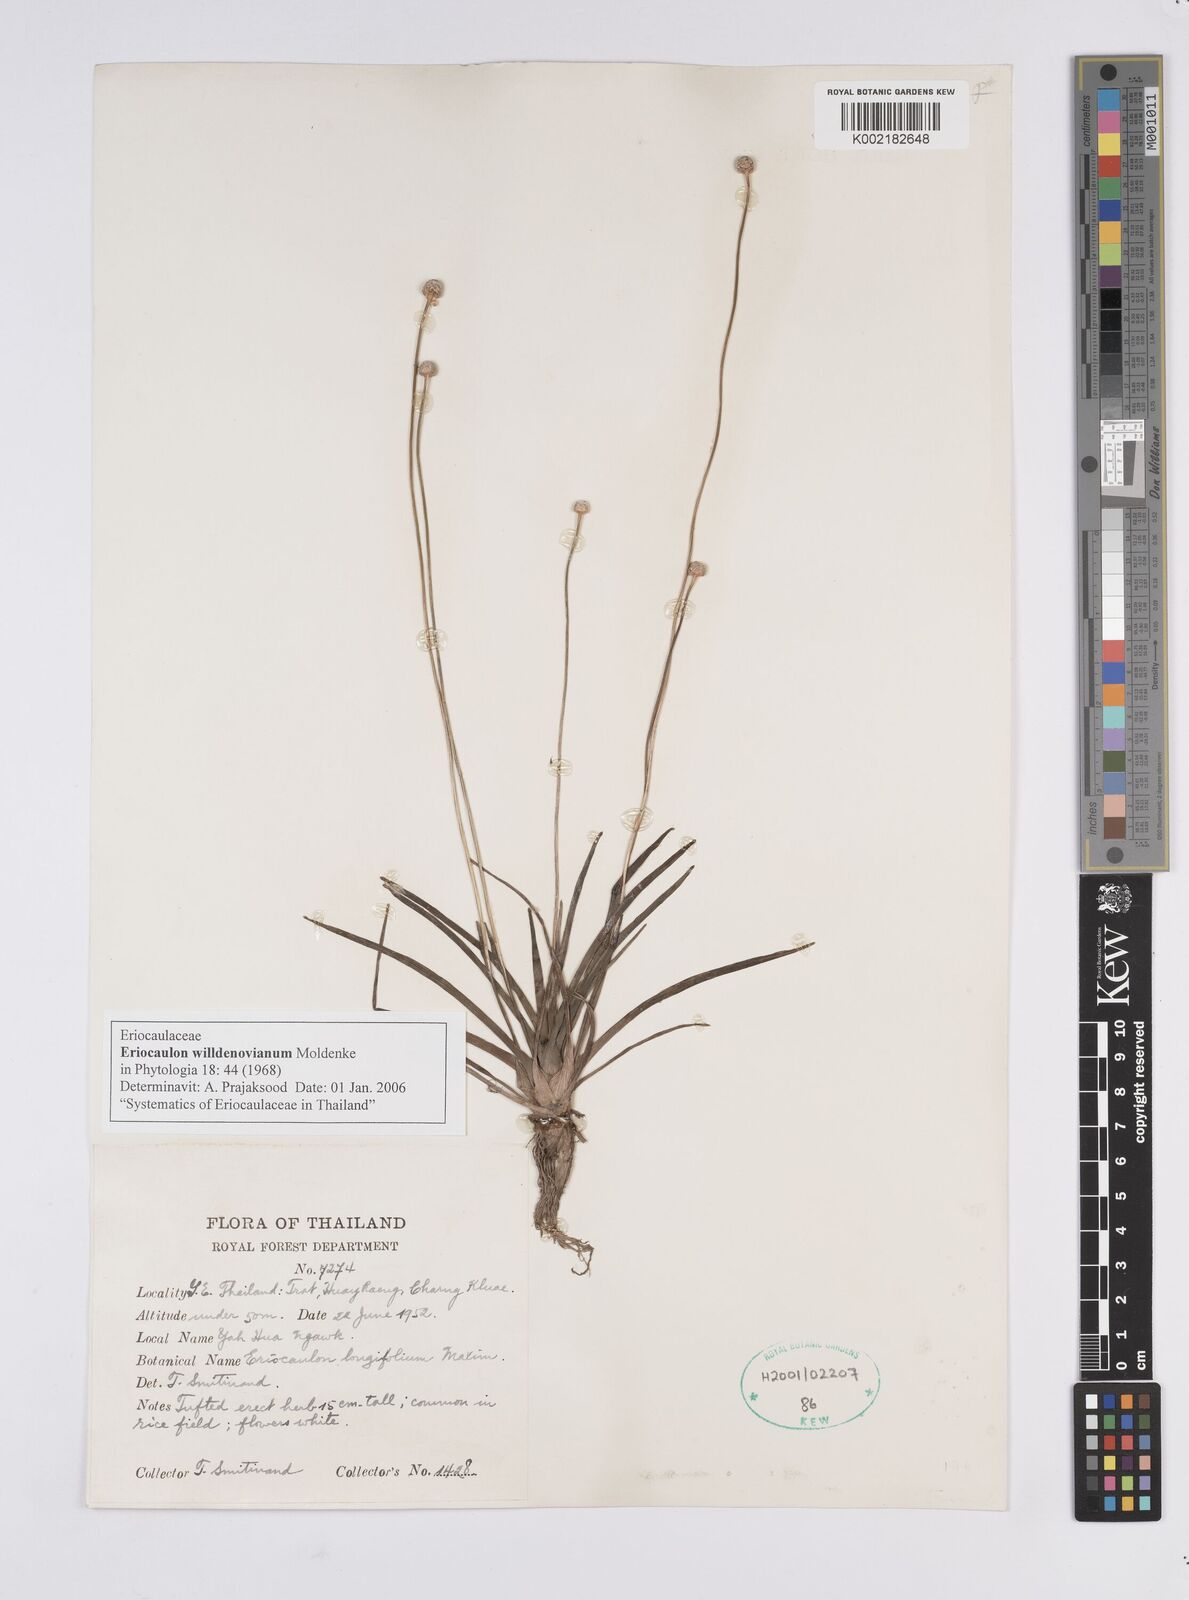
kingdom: Plantae
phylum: Tracheophyta
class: Liliopsida
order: Poales
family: Eriocaulaceae
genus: Eriocaulon
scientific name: Eriocaulon willdenovianum
